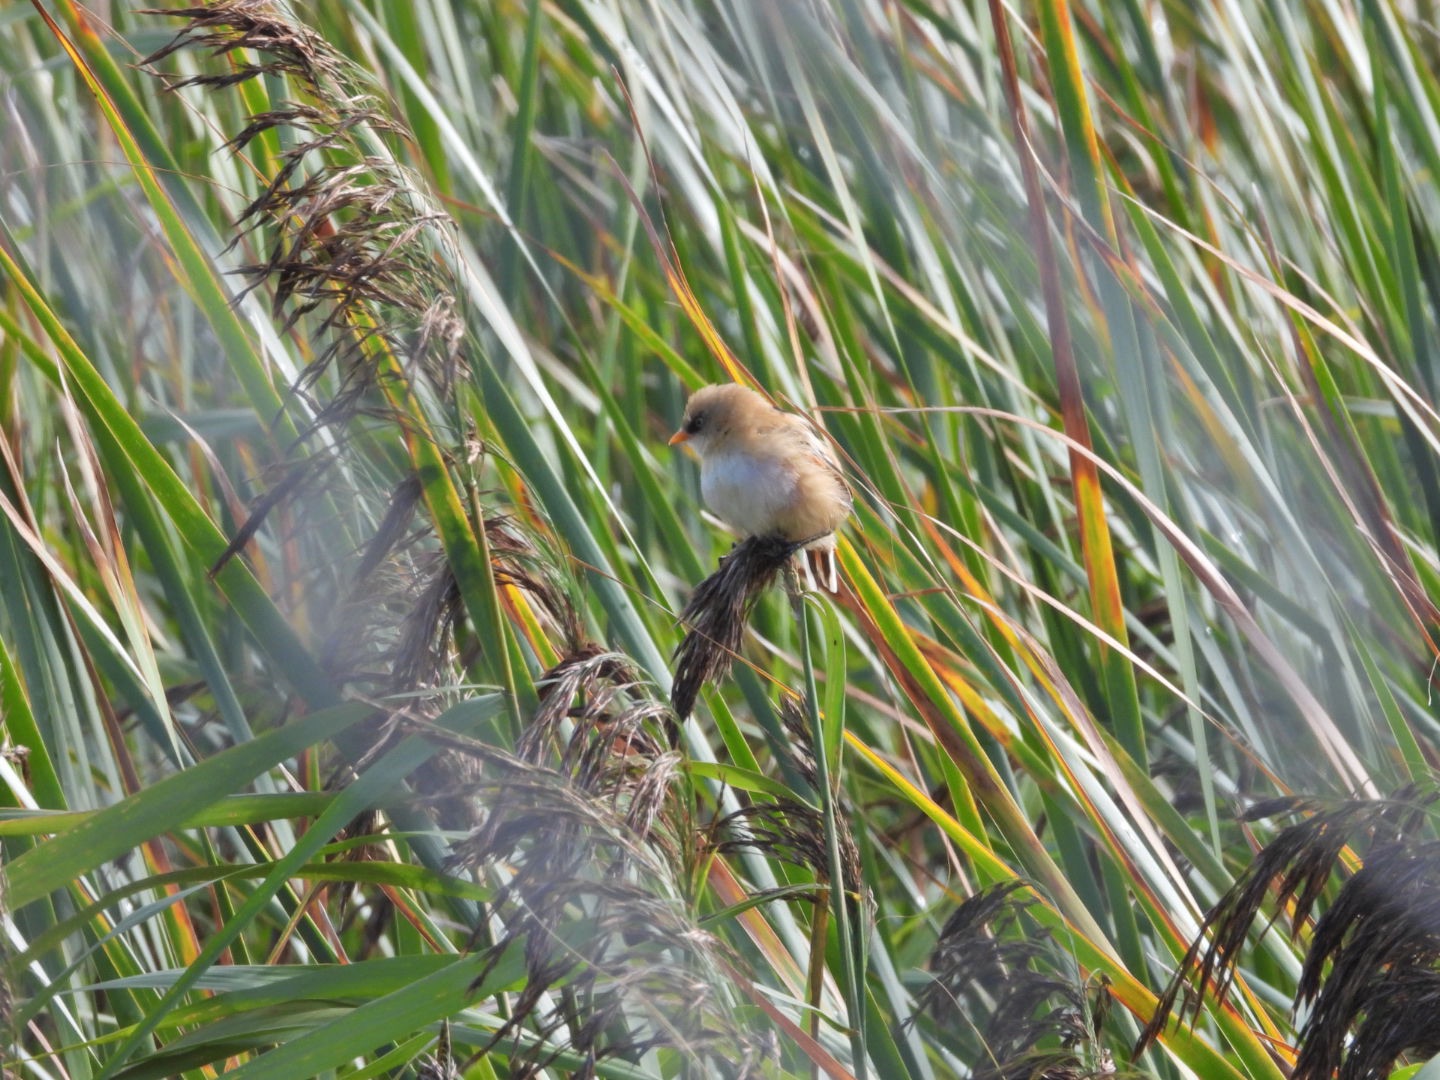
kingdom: Animalia
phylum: Chordata
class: Aves
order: Passeriformes
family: Panuridae
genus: Panurus
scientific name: Panurus biarmicus
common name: Skægmejse
